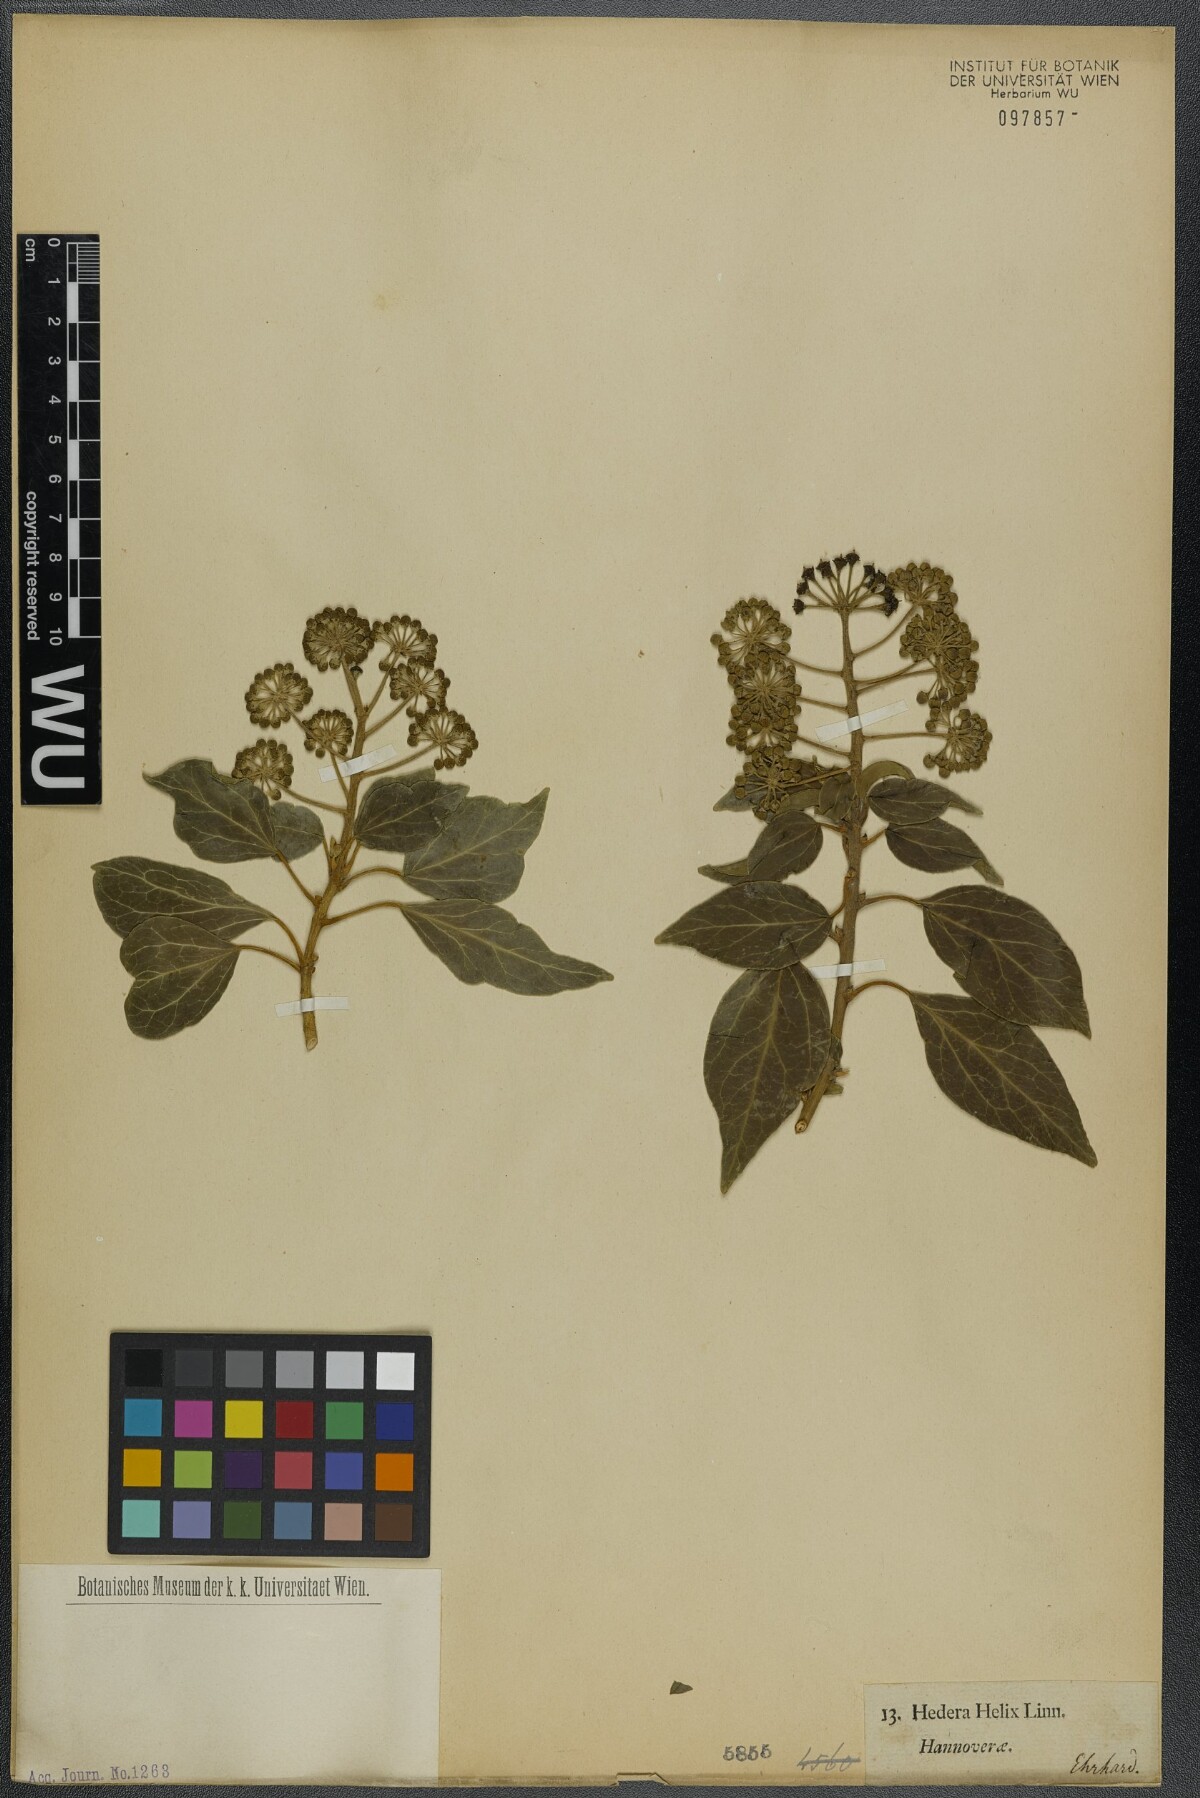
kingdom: Plantae
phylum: Tracheophyta
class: Magnoliopsida
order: Apiales
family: Araliaceae
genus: Hedera
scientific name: Hedera helix
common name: Ivy
